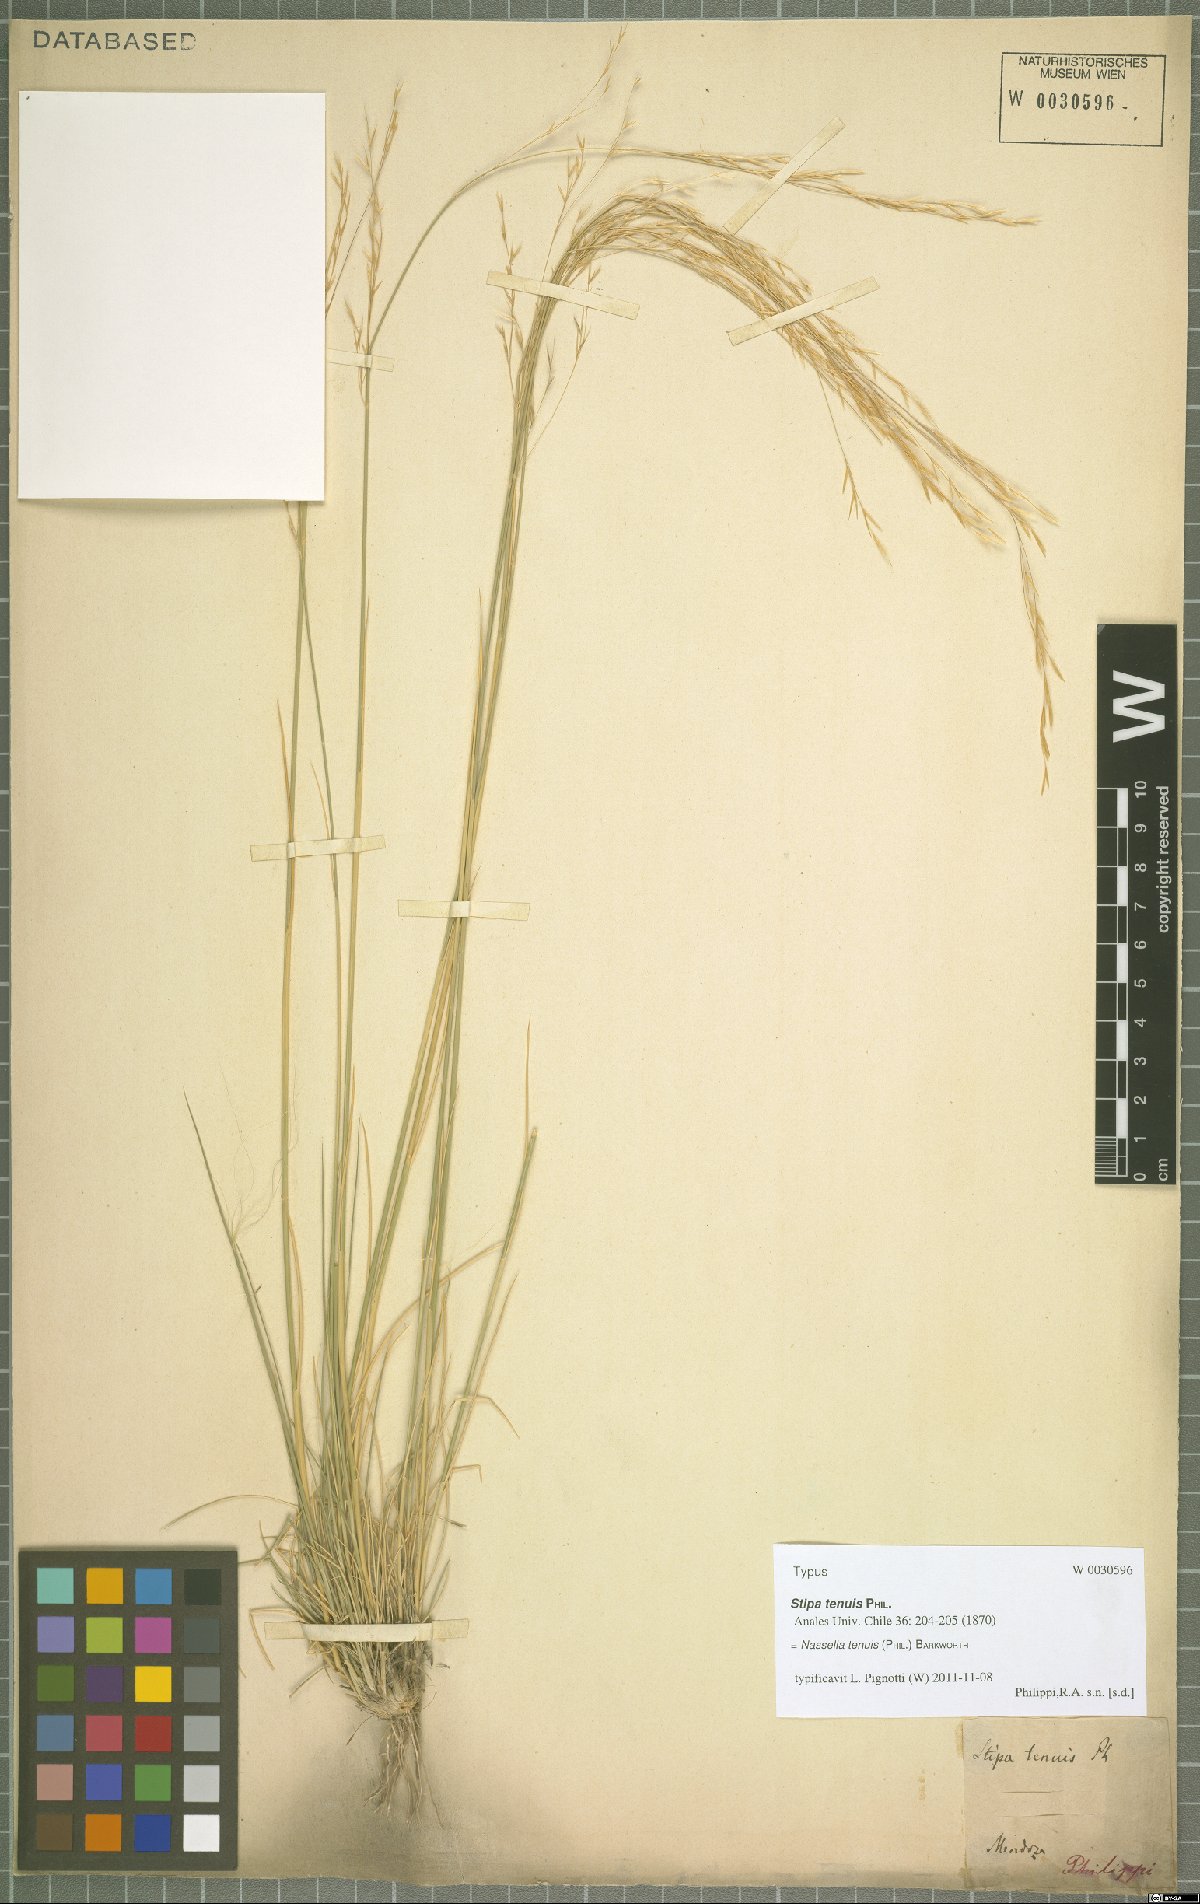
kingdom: Plantae
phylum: Tracheophyta
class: Liliopsida
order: Poales
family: Poaceae
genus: Nassella
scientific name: Nassella tenuis
